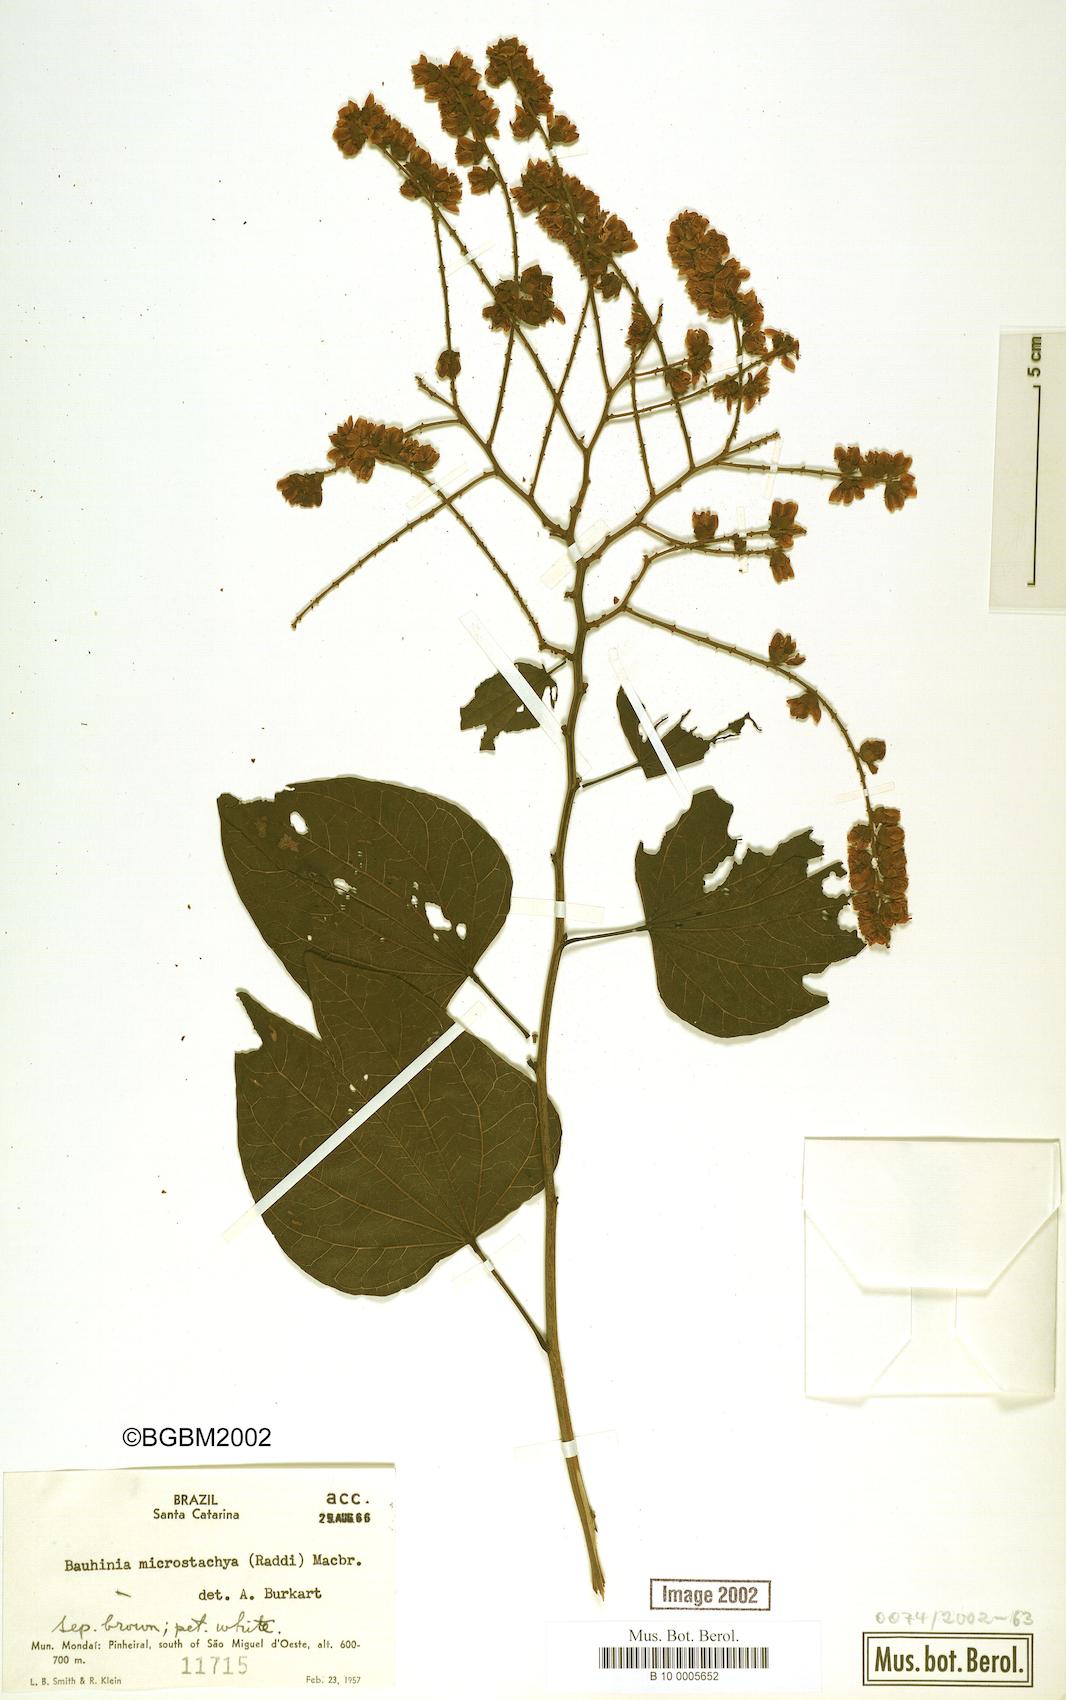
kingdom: Plantae
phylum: Tracheophyta
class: Magnoliopsida
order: Fabales
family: Fabaceae
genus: Schnella
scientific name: Schnella microstachya
